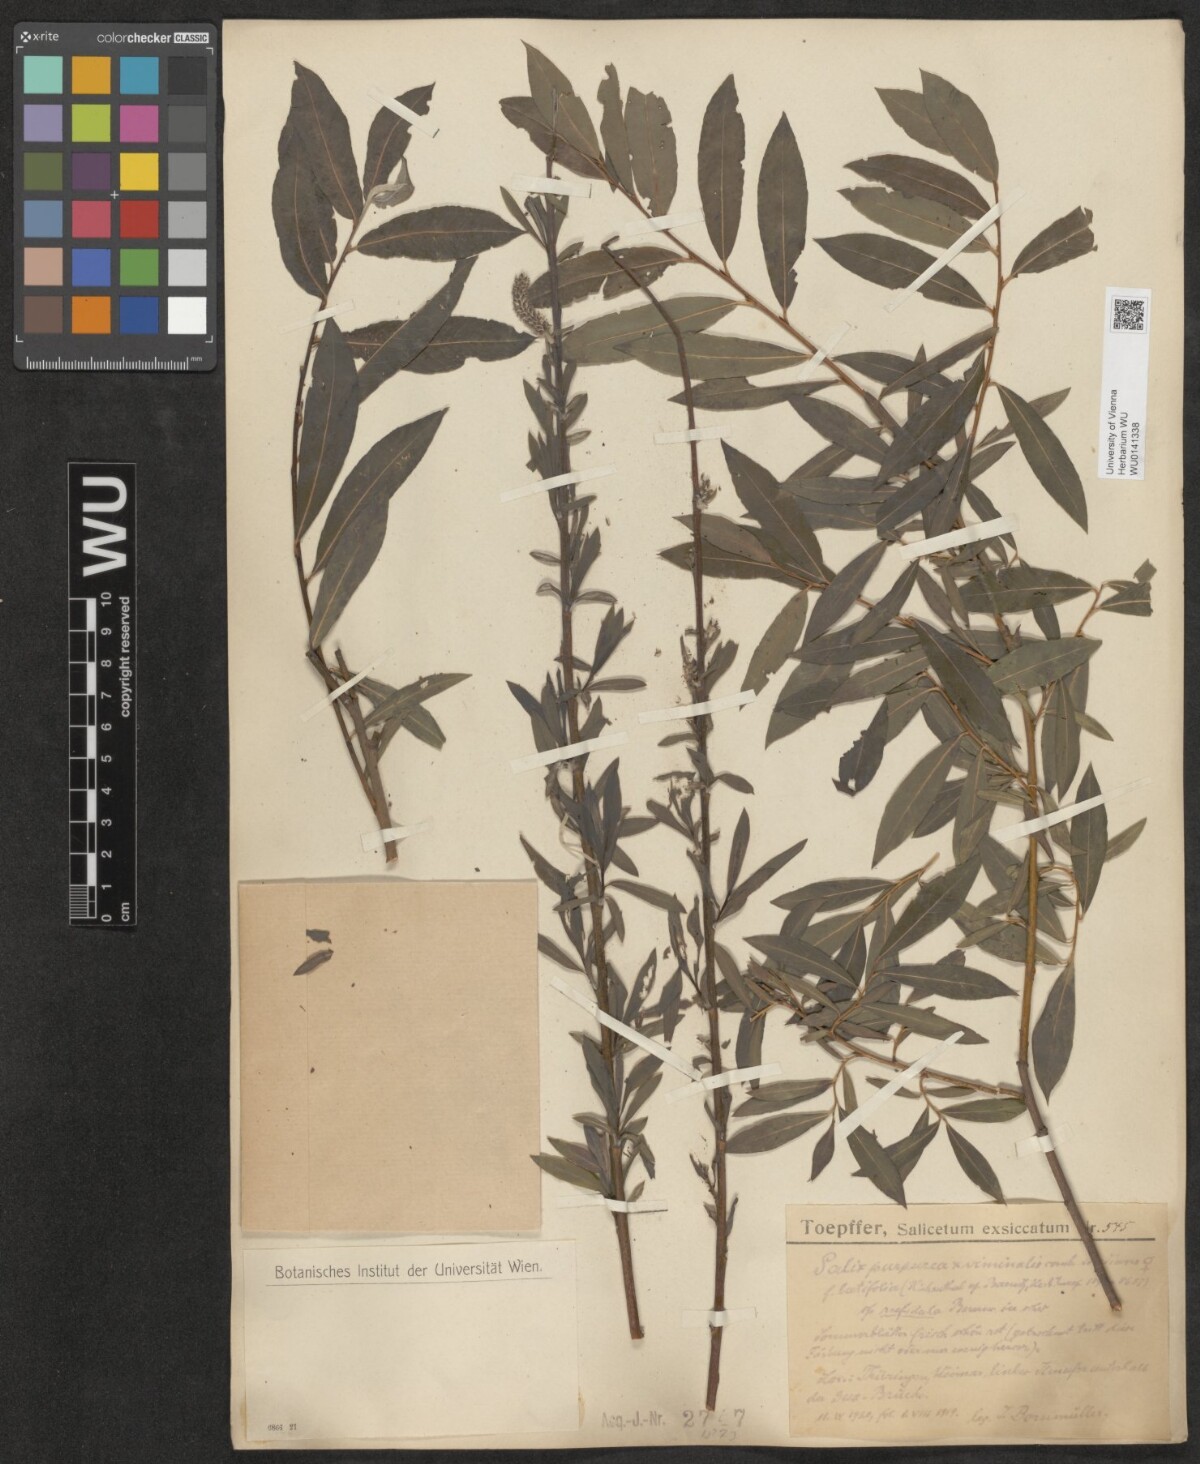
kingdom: Plantae
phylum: Tracheophyta
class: Magnoliopsida
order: Malpighiales
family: Salicaceae
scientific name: Salicaceae
